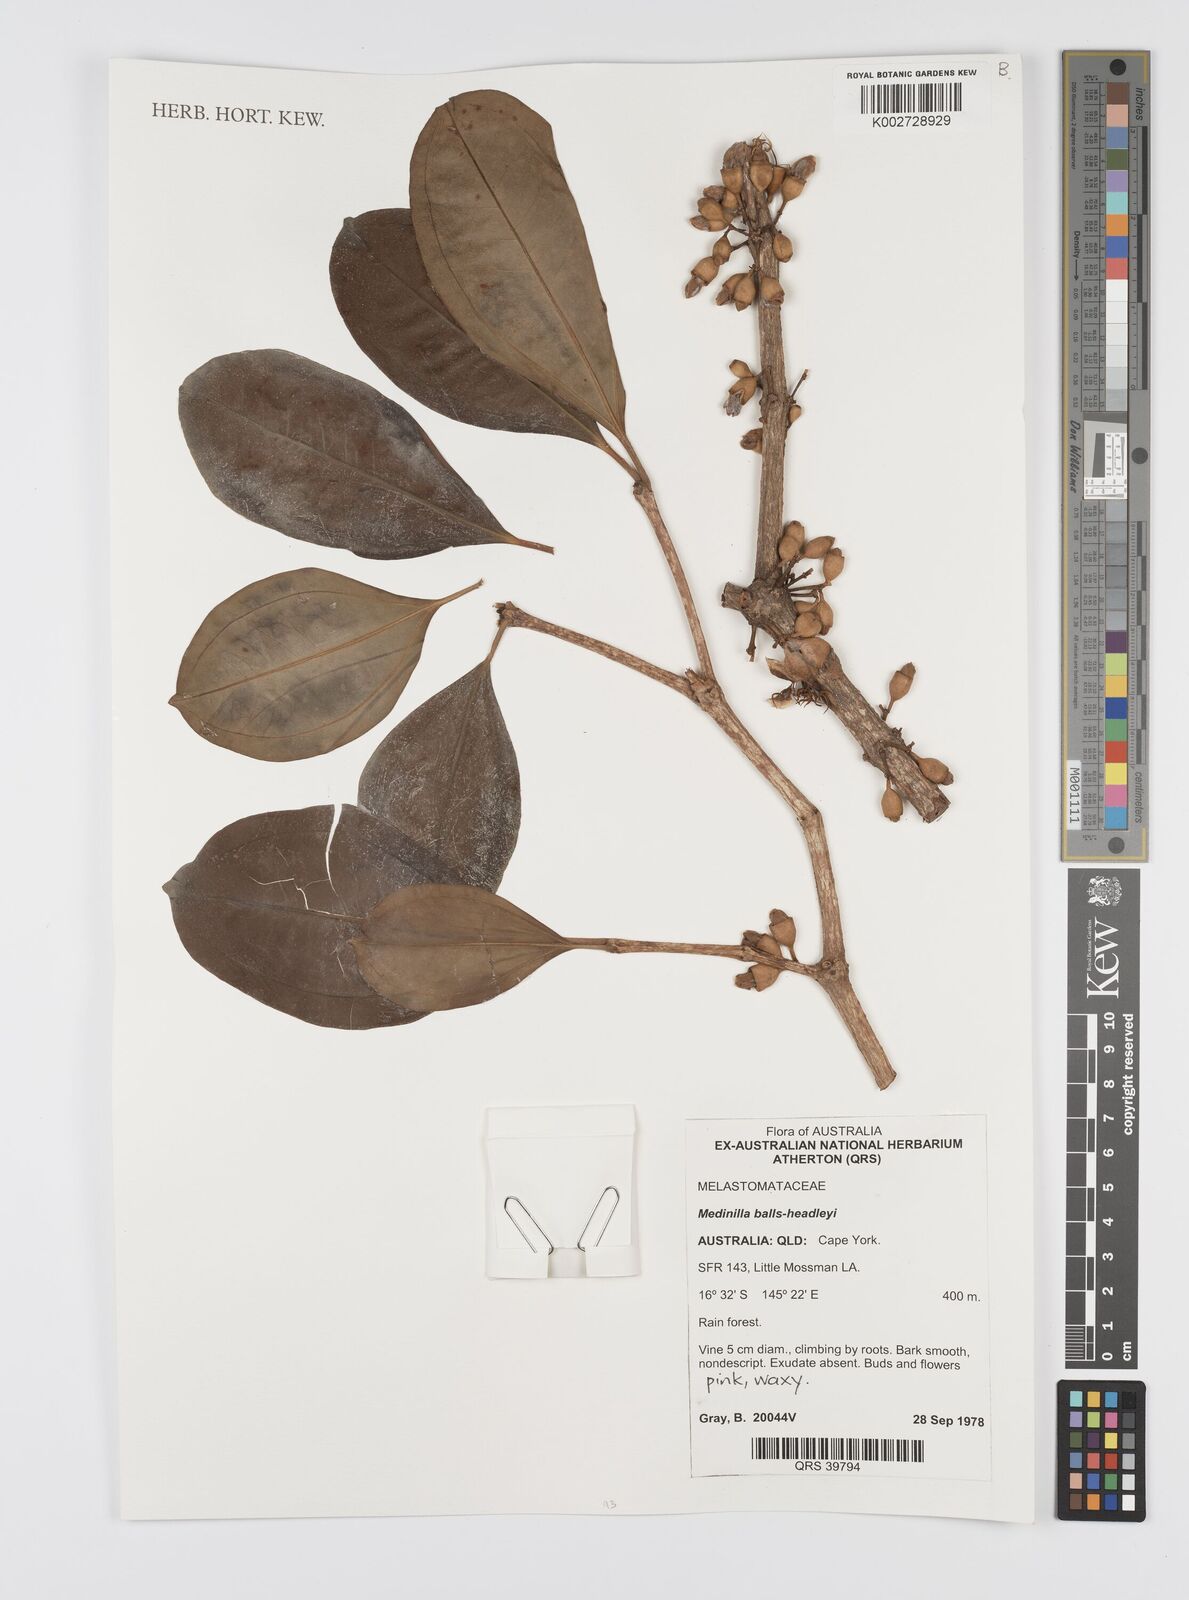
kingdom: Plantae
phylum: Tracheophyta
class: Magnoliopsida
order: Myrtales
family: Melastomataceae
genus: Medinilla
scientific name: Medinilla balls-headleyi
